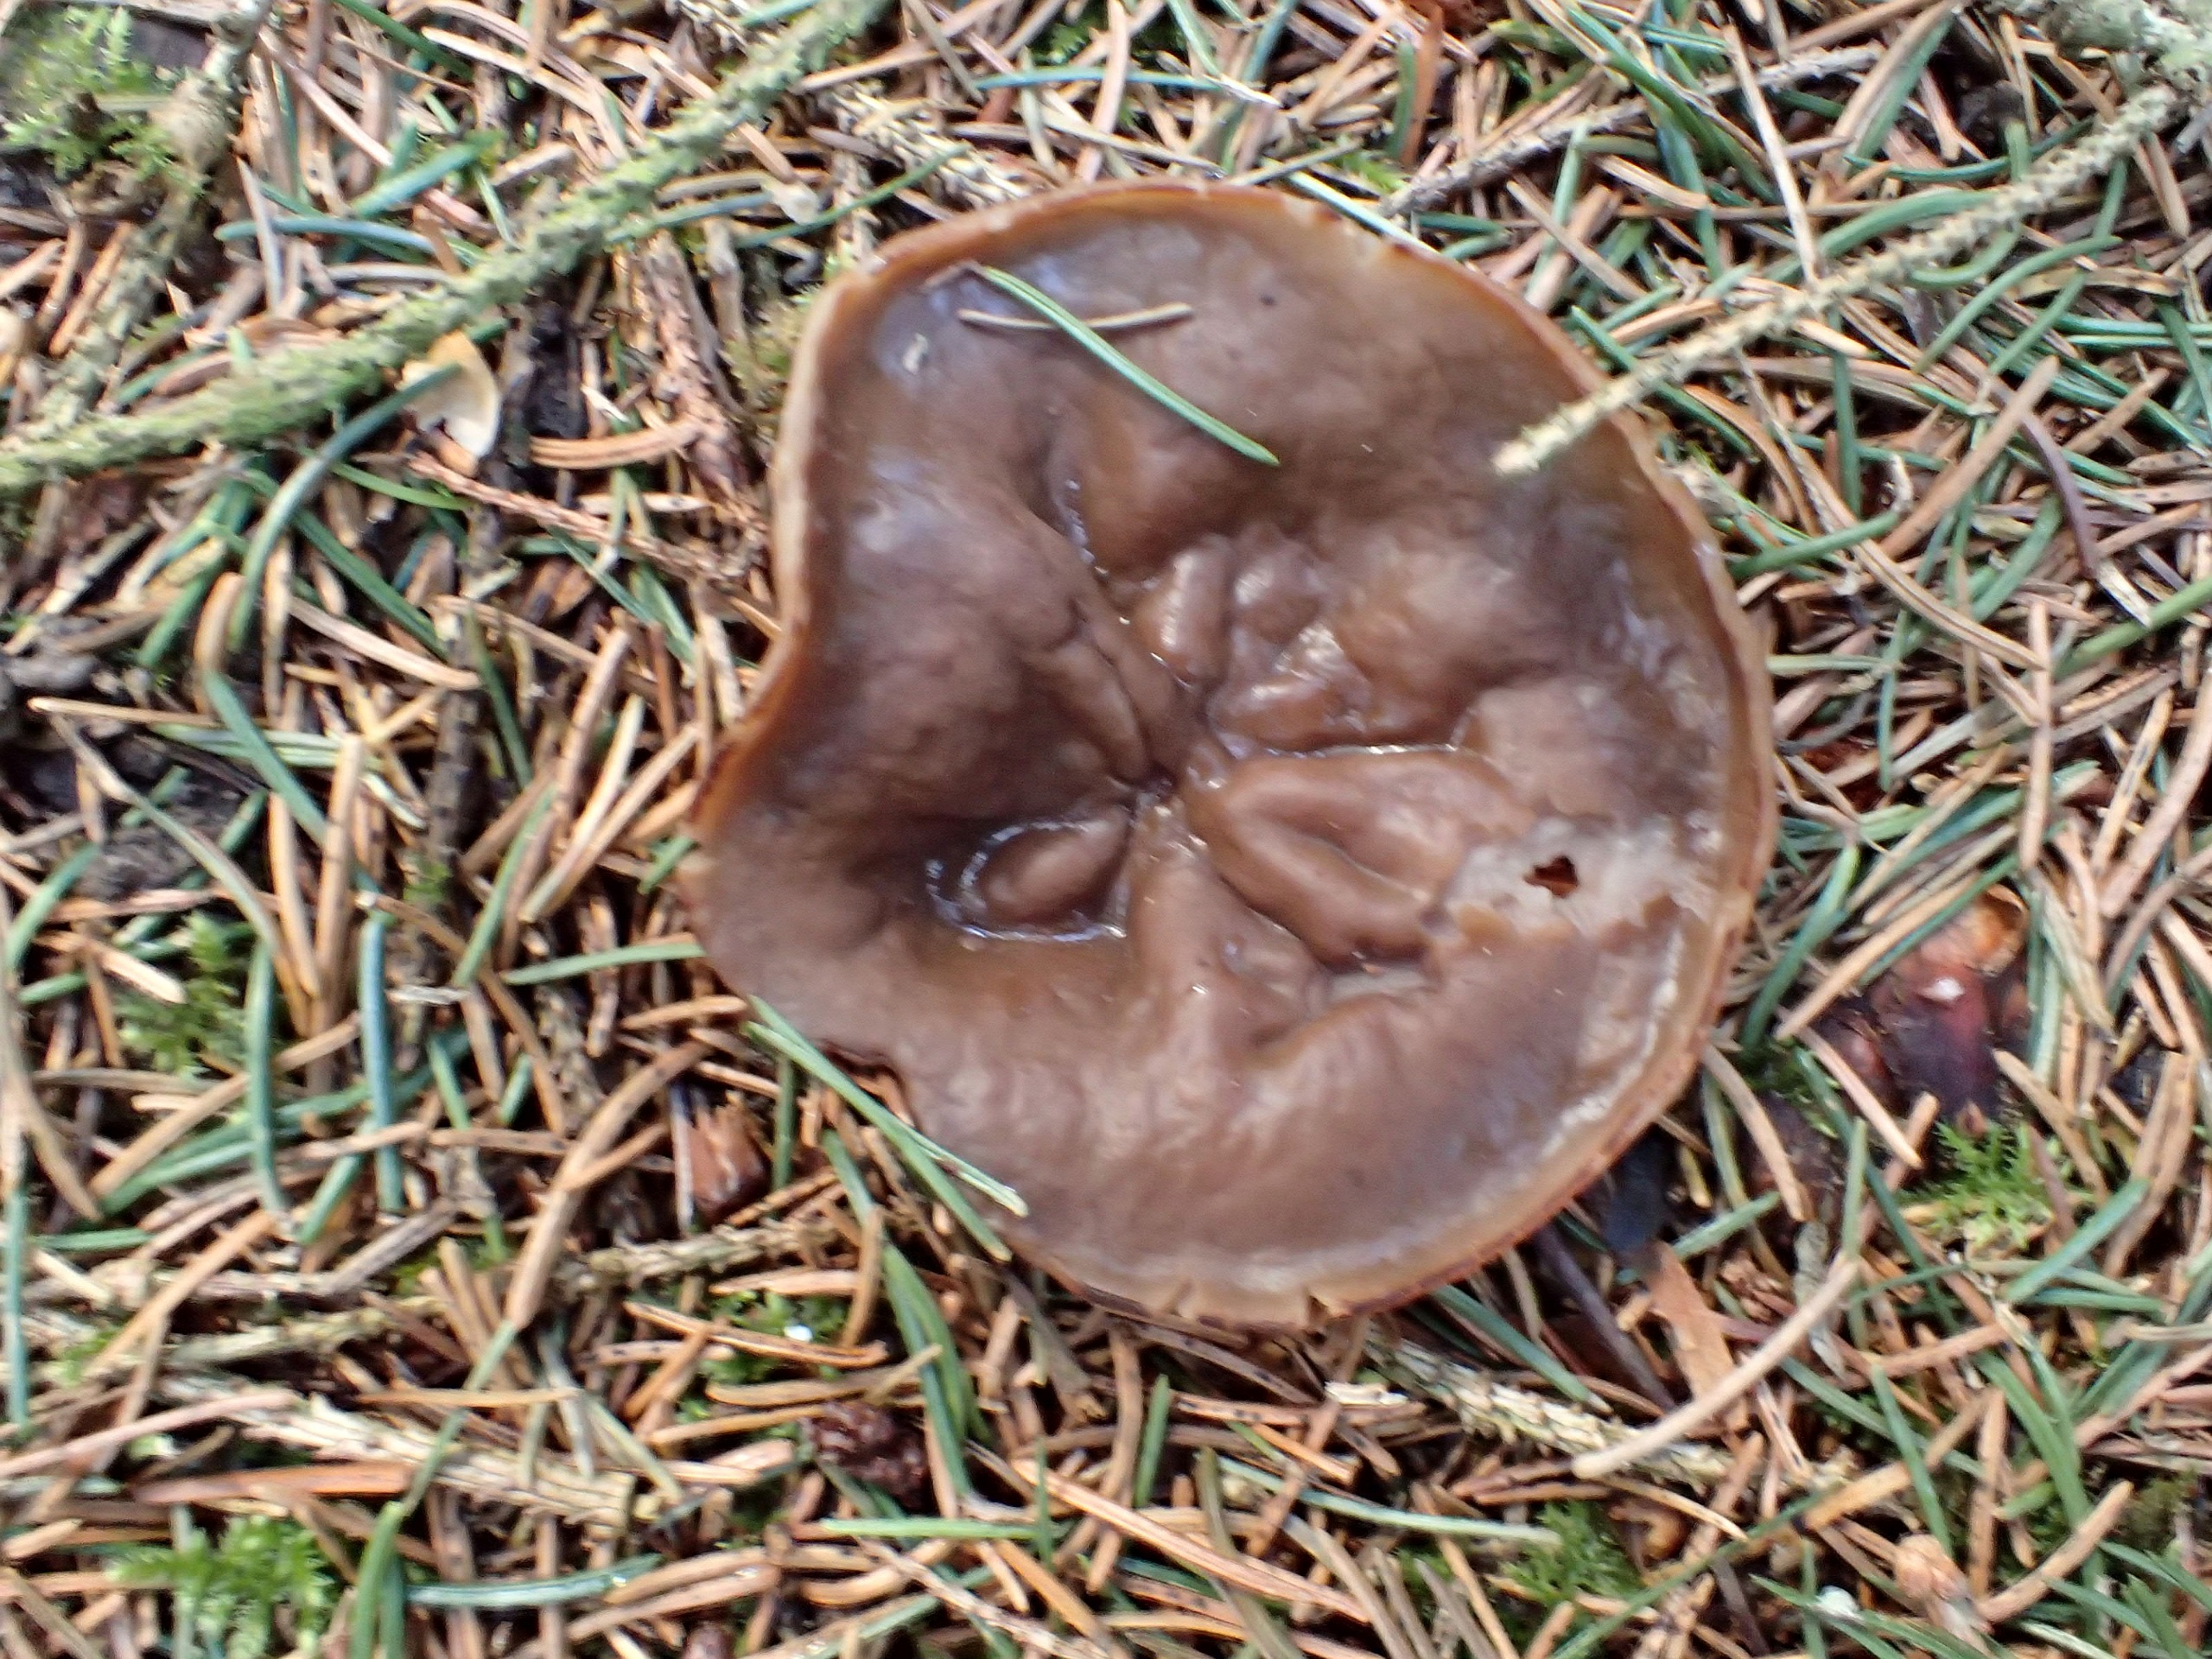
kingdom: Fungi
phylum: Ascomycota
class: Pezizomycetes
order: Pezizales
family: Discinaceae
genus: Discina
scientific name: Discina ancilis
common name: Udbredt stenmorkel
